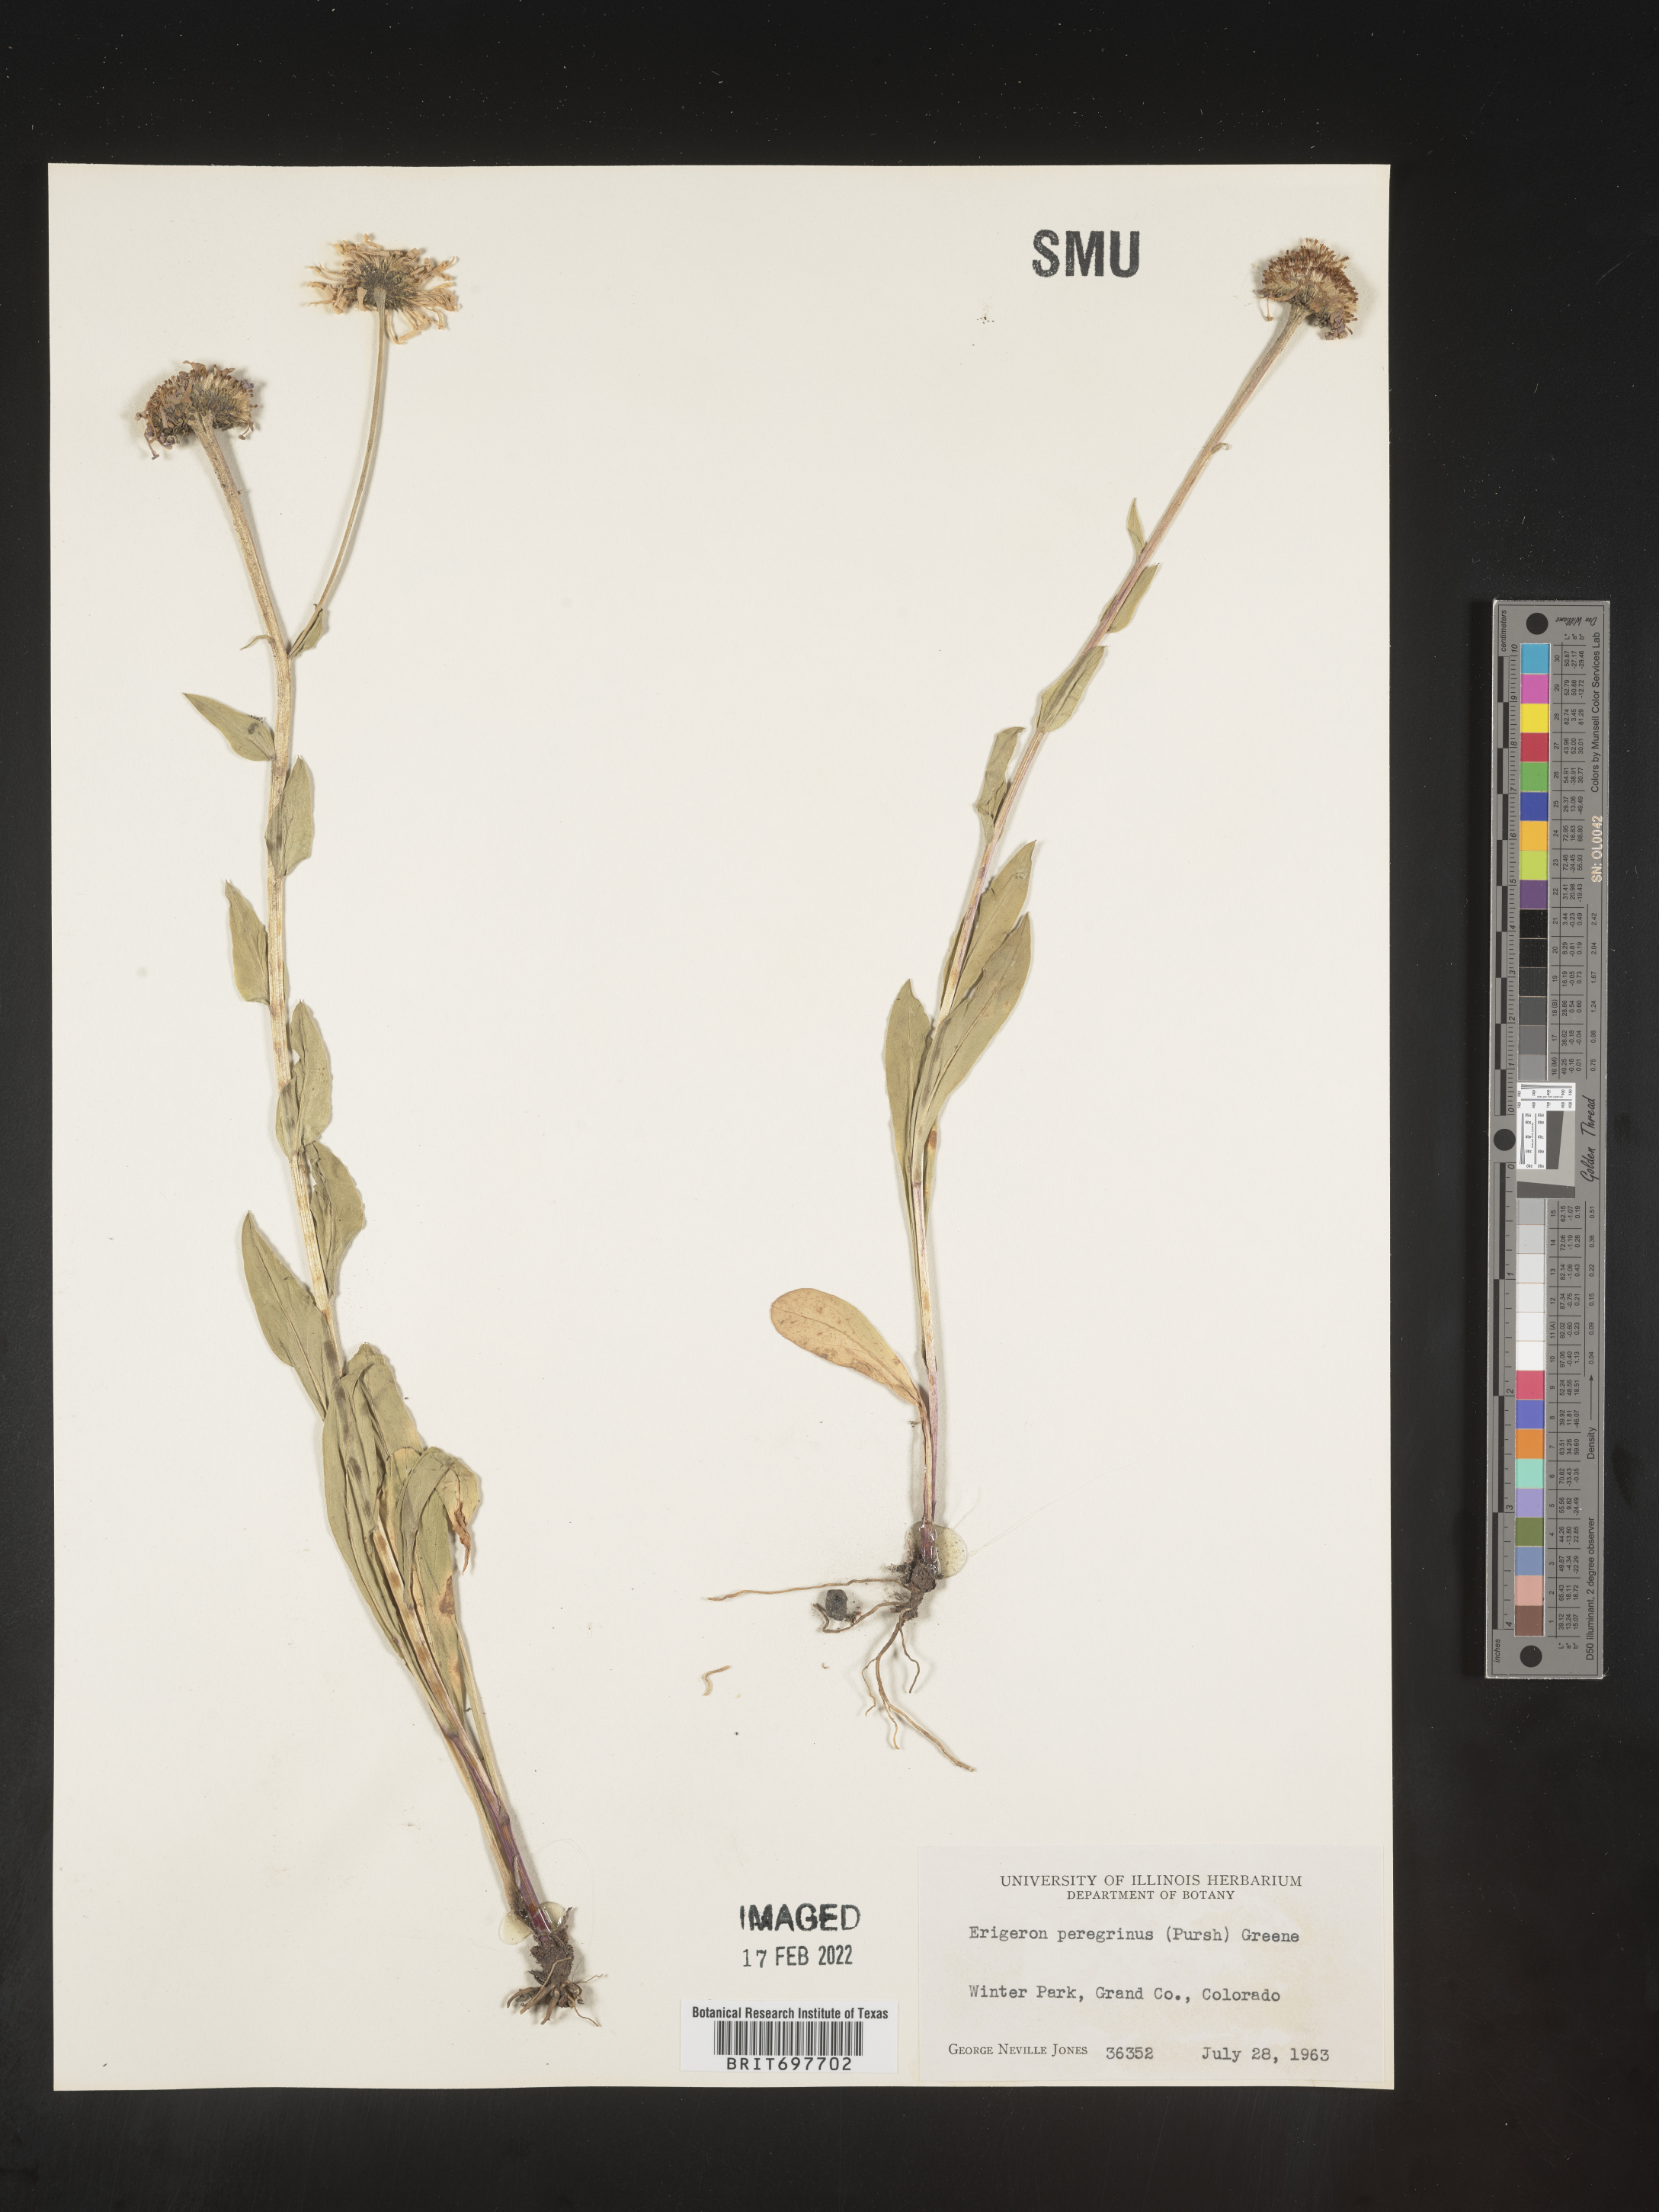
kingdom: Plantae
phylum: Tracheophyta
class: Magnoliopsida
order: Asterales
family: Asteraceae
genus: Erigeron
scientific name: Erigeron glacialis
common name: Subalpine fleabane
